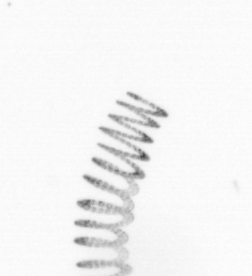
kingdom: Chromista
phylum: Ochrophyta
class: Bacillariophyceae
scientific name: Bacillariophyceae
